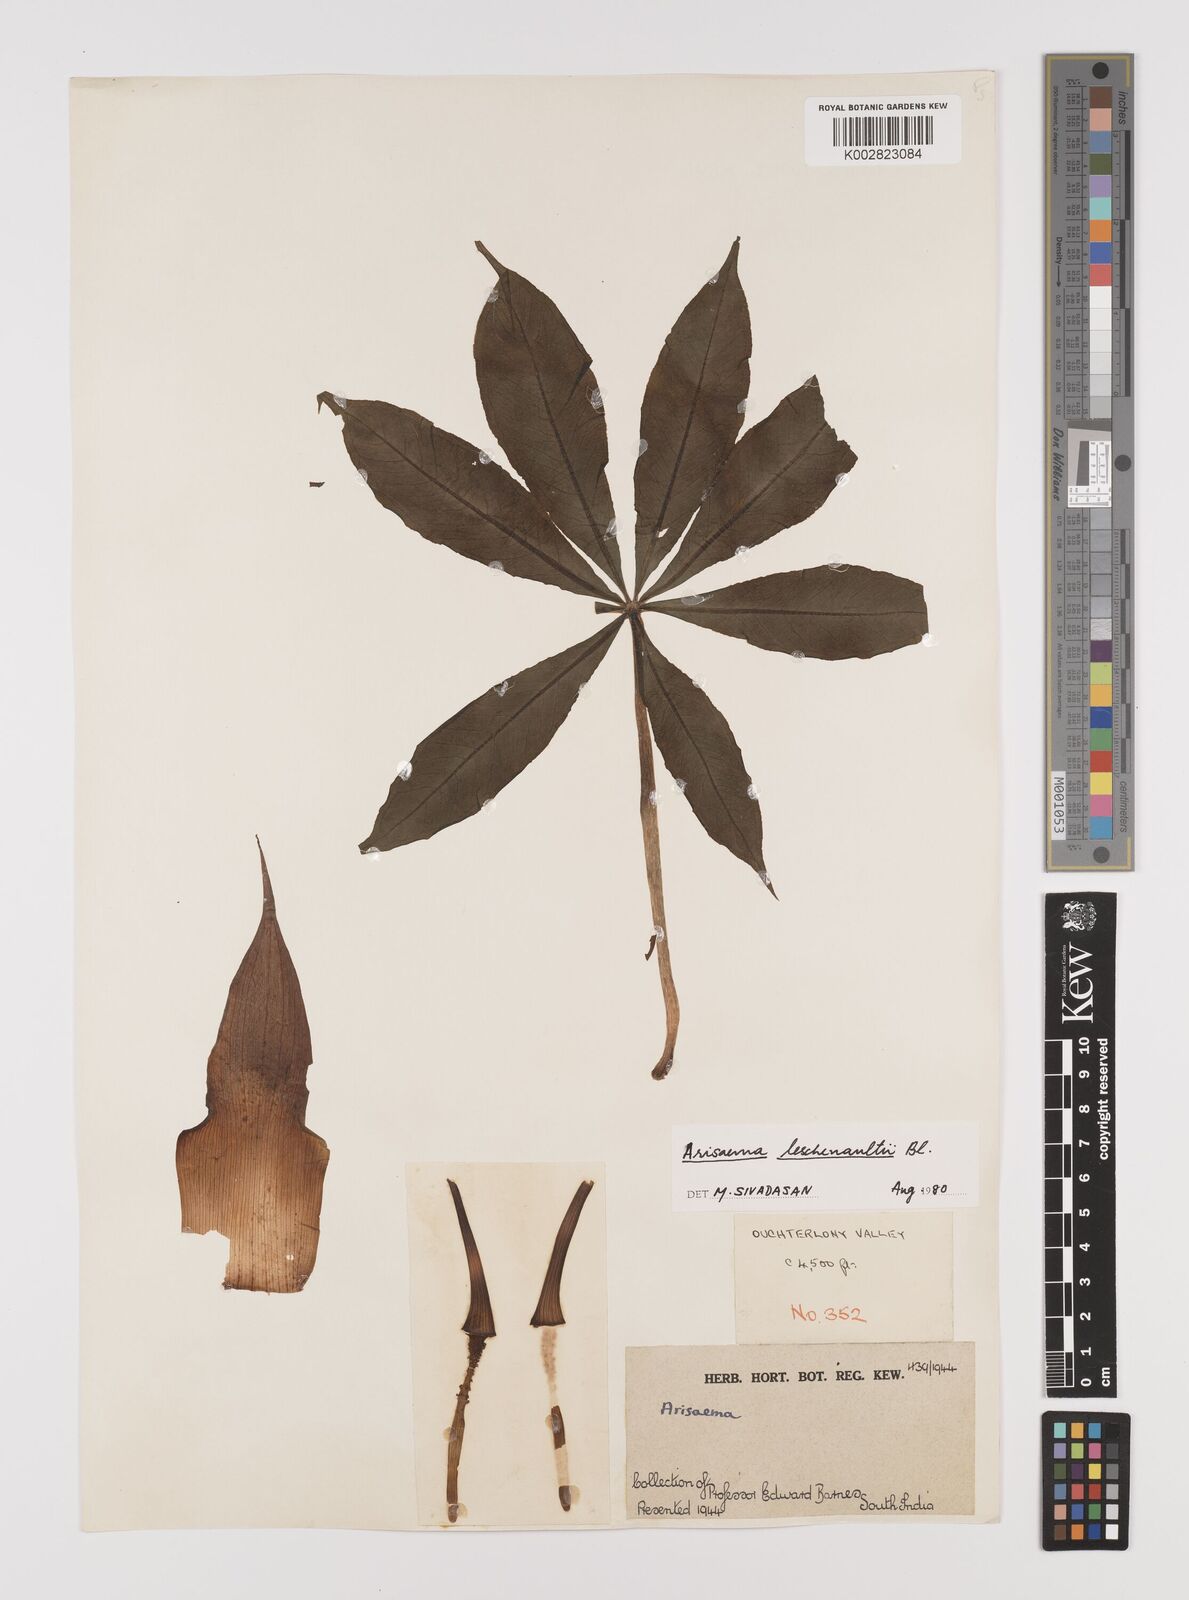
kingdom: Plantae
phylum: Tracheophyta
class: Liliopsida
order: Alismatales
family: Araceae
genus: Arisaema
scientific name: Arisaema leschenaultii
